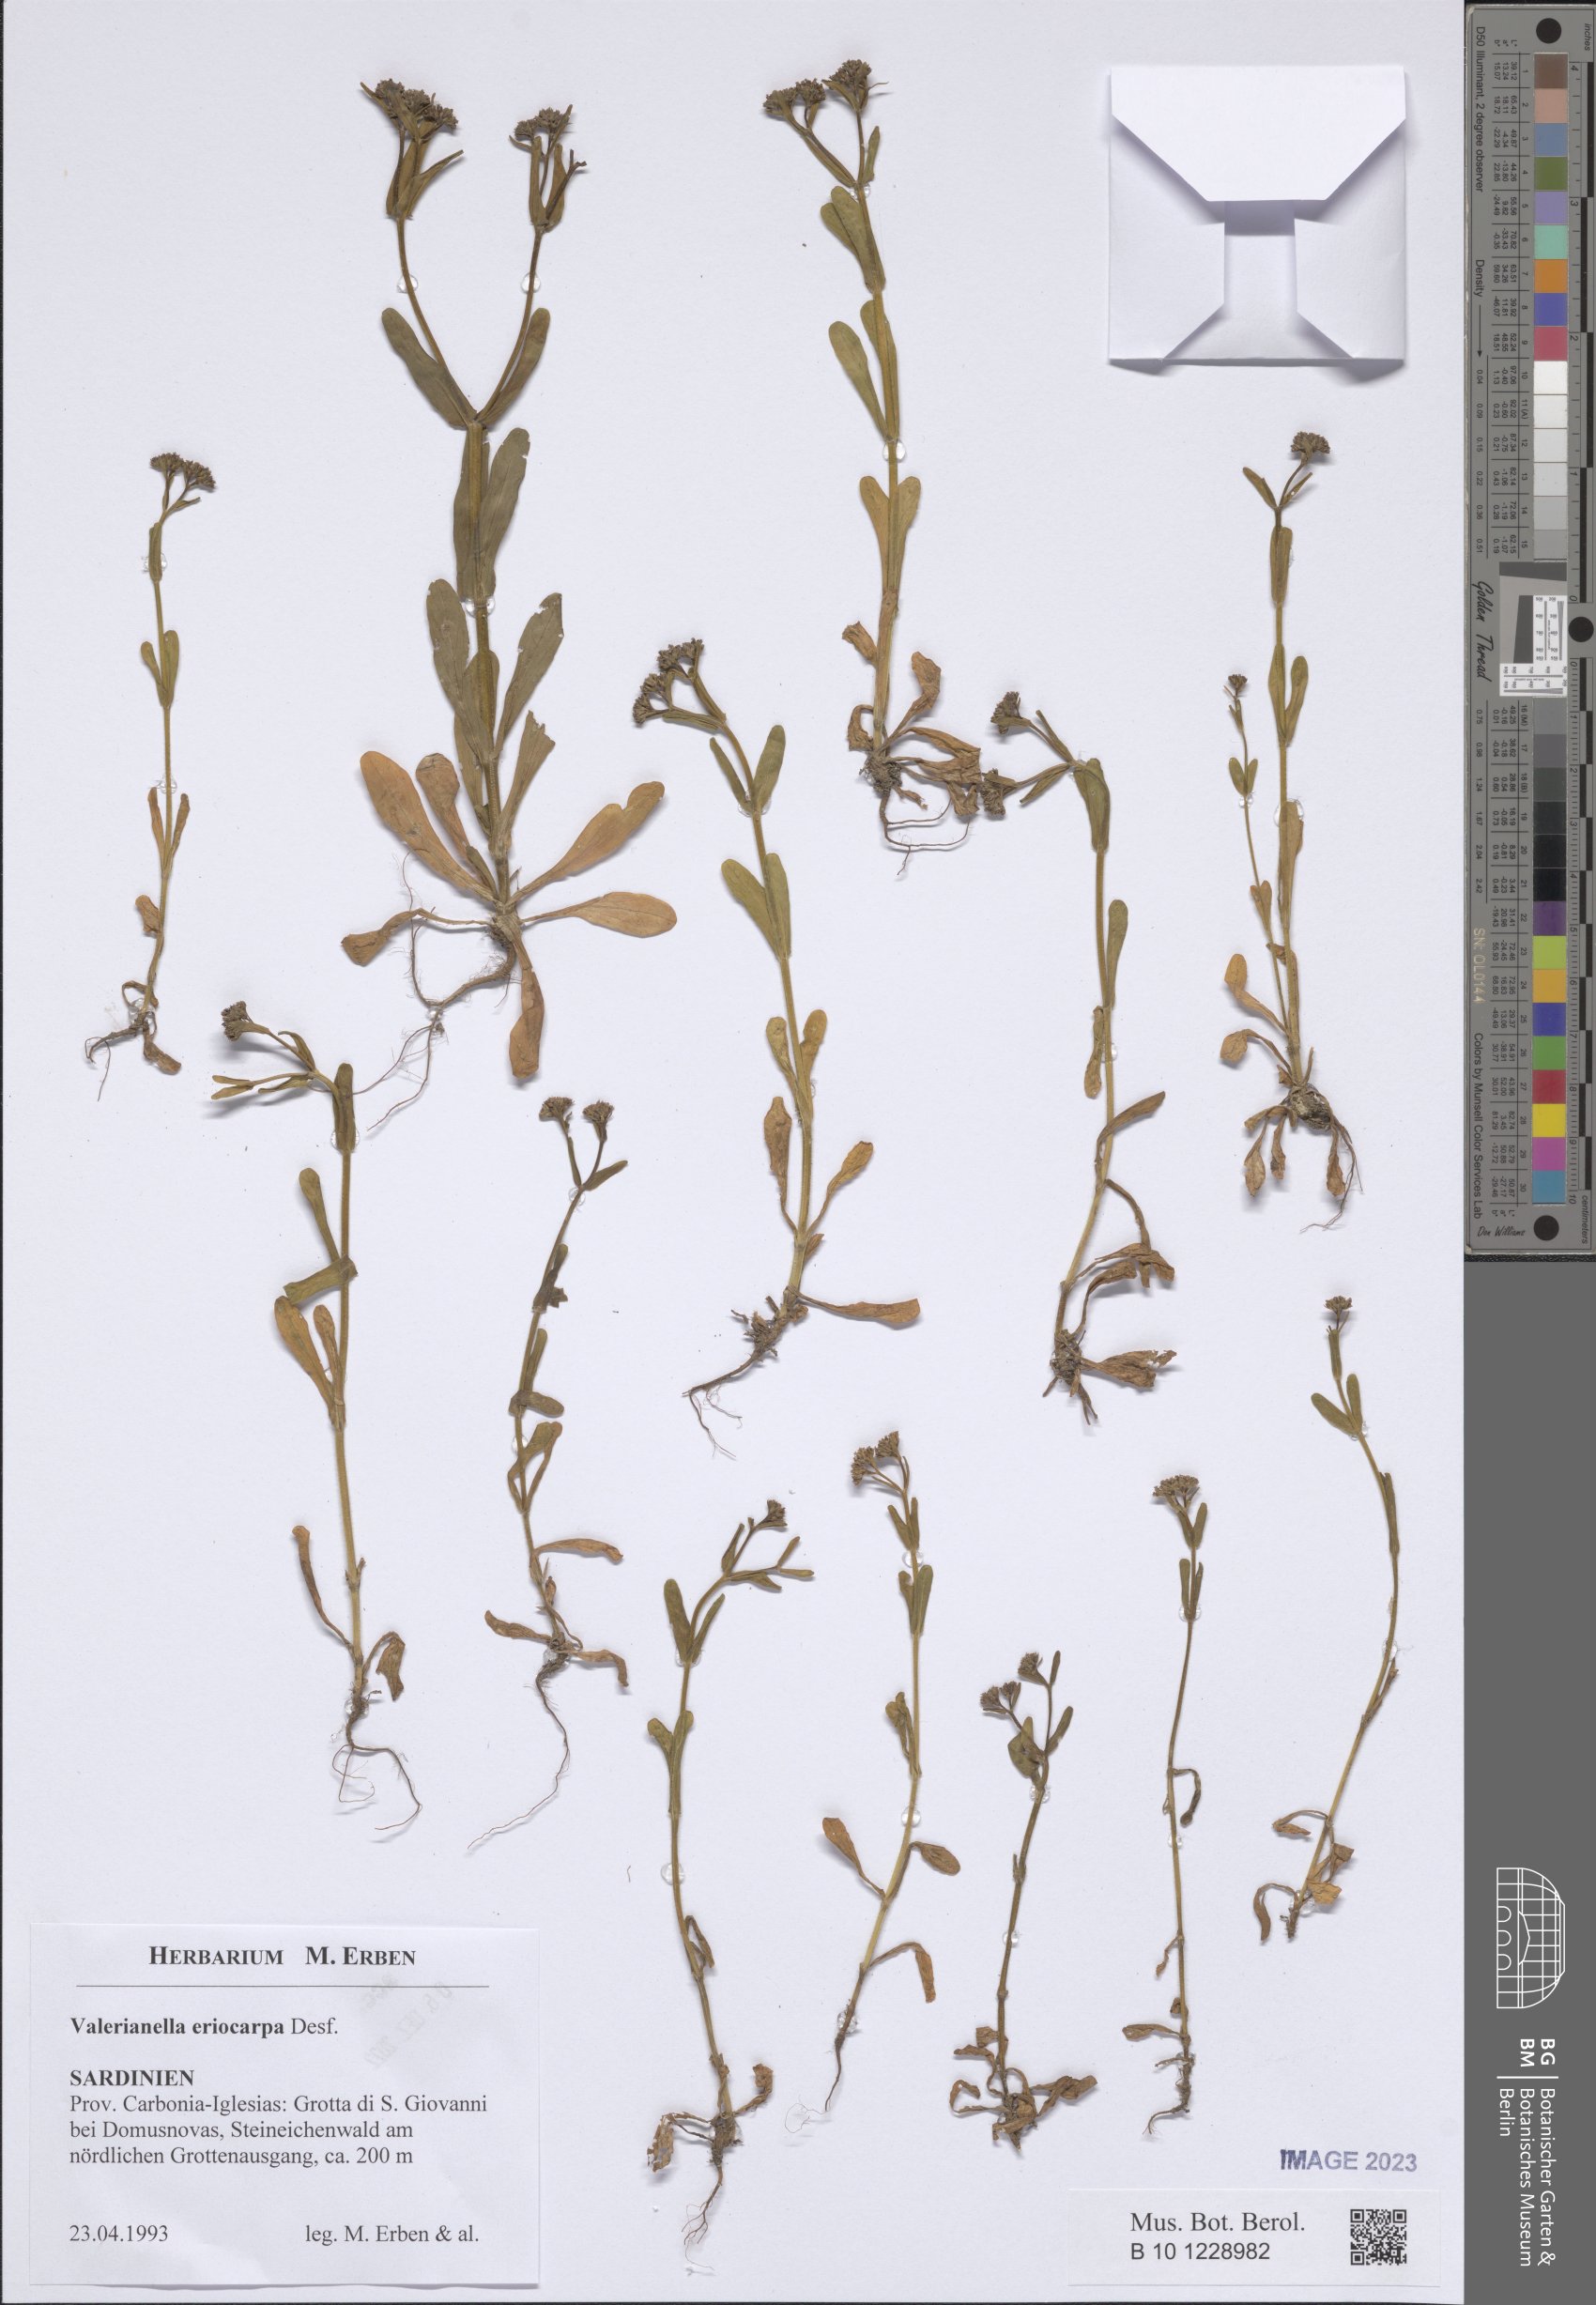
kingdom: Plantae
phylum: Tracheophyta
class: Magnoliopsida
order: Dipsacales
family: Caprifoliaceae
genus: Valerianella
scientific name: Valerianella eriocarpa
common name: Hairy-fruited cornsalad
